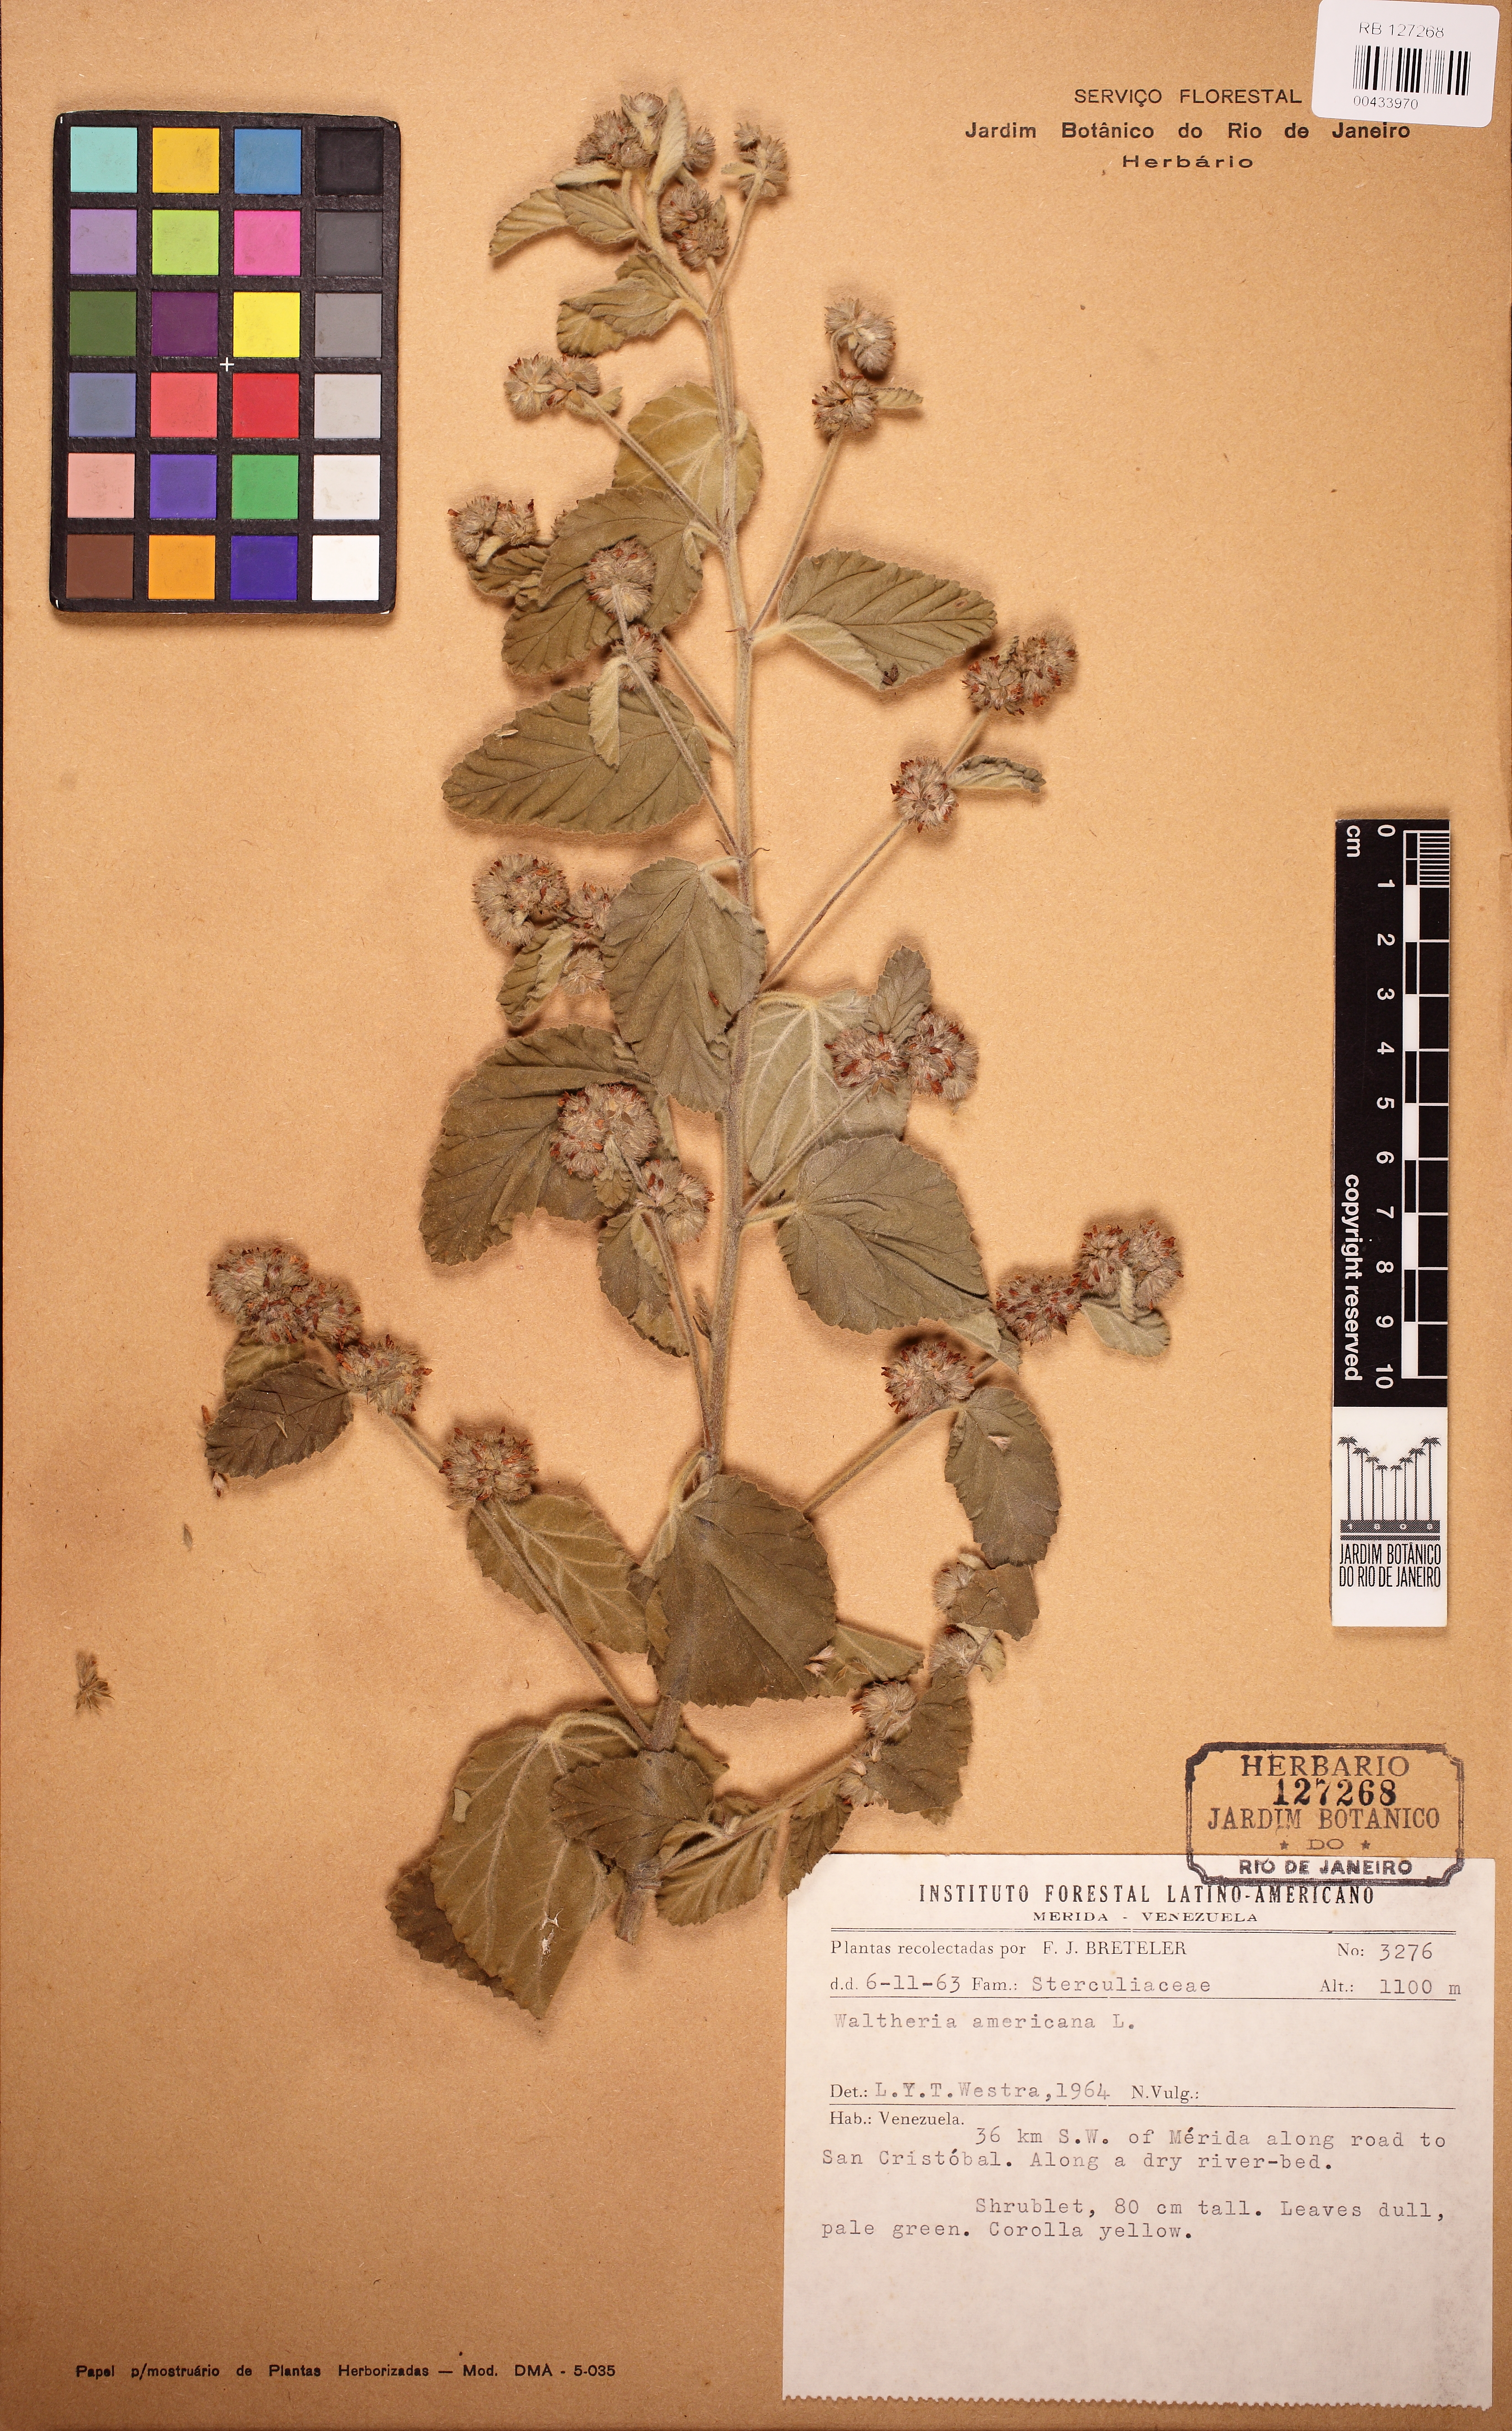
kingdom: Plantae
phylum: Tracheophyta
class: Magnoliopsida
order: Malvales
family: Malvaceae
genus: Waltheria
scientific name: Waltheria indica
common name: Leather-coat
